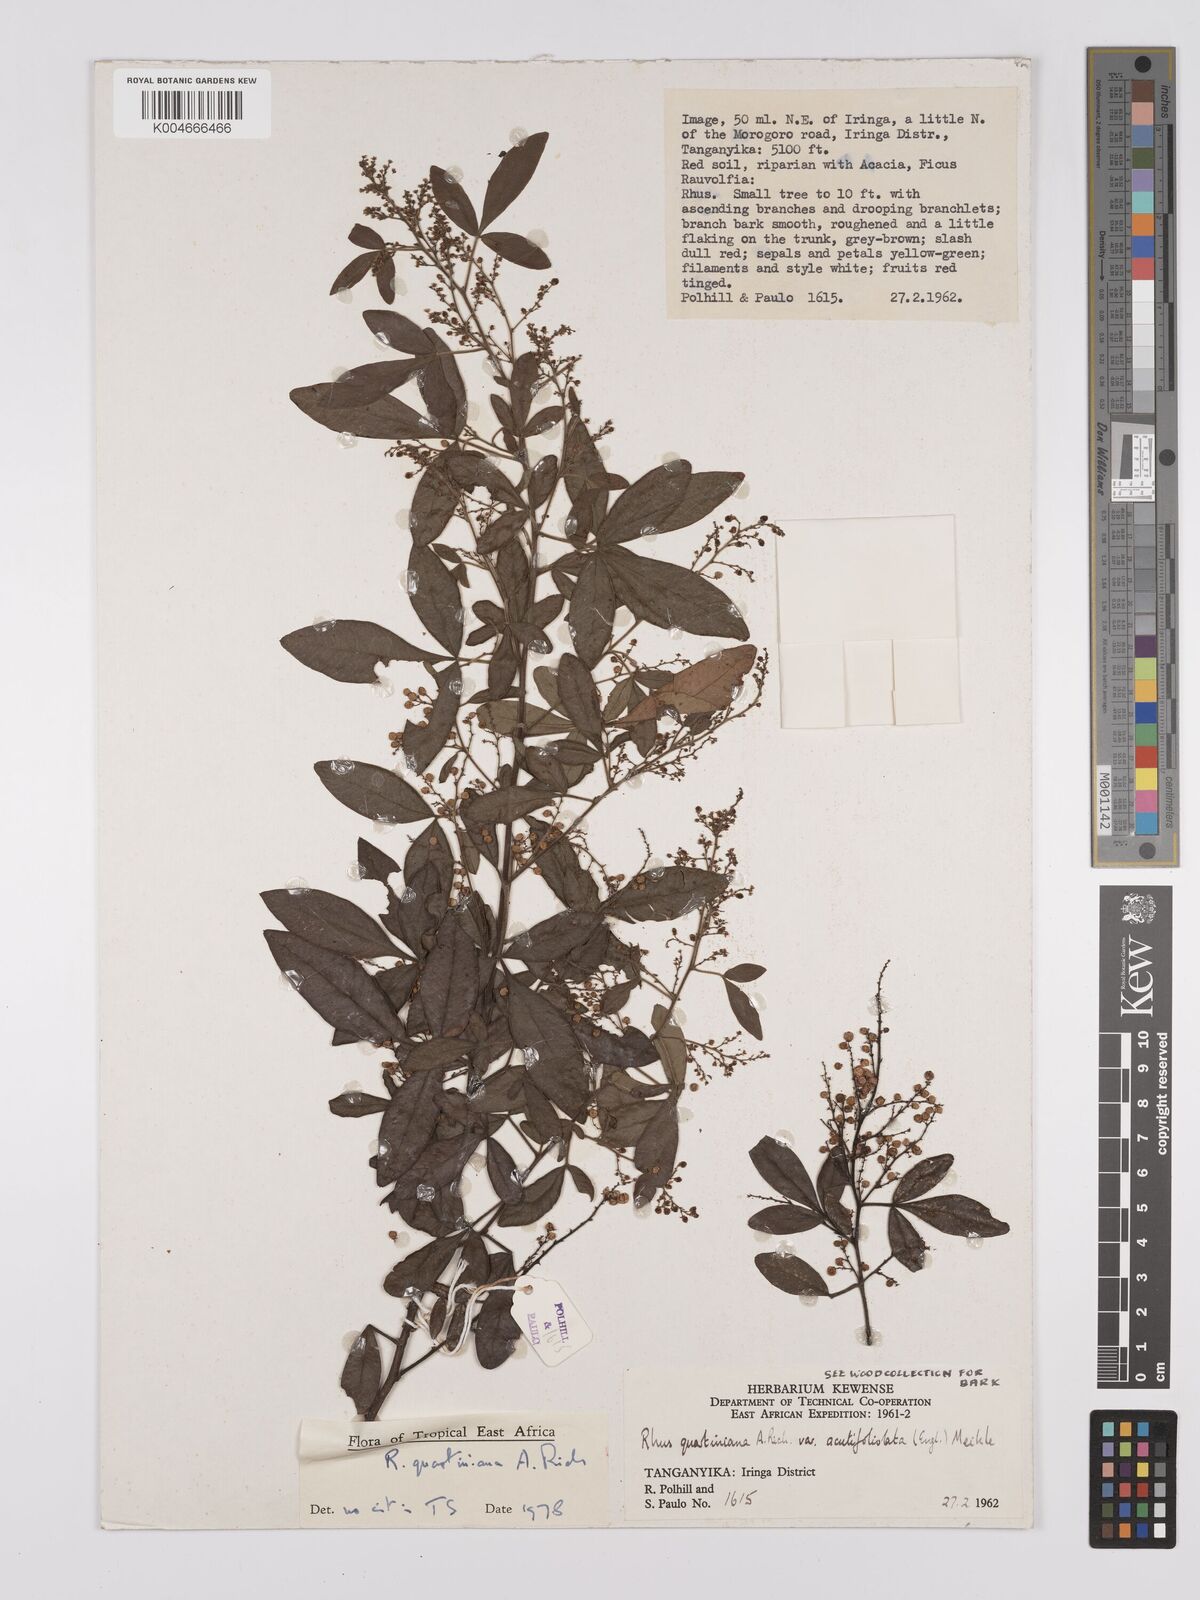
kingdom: Plantae
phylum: Tracheophyta
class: Magnoliopsida
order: Sapindales
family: Anacardiaceae
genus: Searsia
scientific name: Searsia quartiniana
